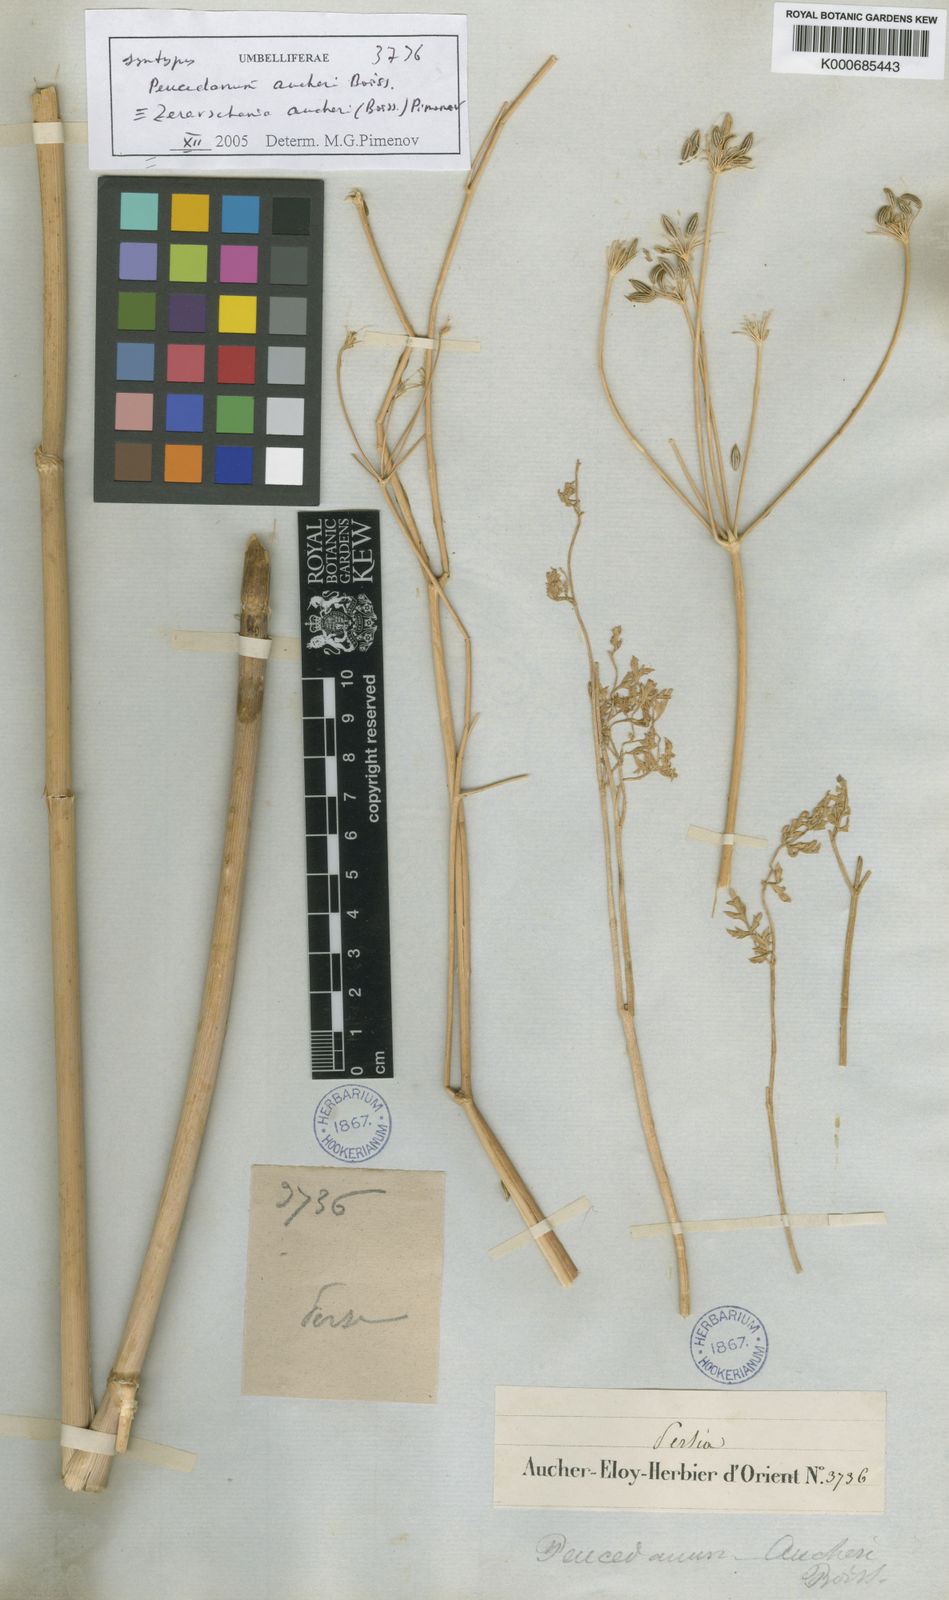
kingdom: Plantae
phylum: Tracheophyta
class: Magnoliopsida
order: Apiales
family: Apiaceae
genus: Zeravschania
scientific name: Zeravschania aucheri
